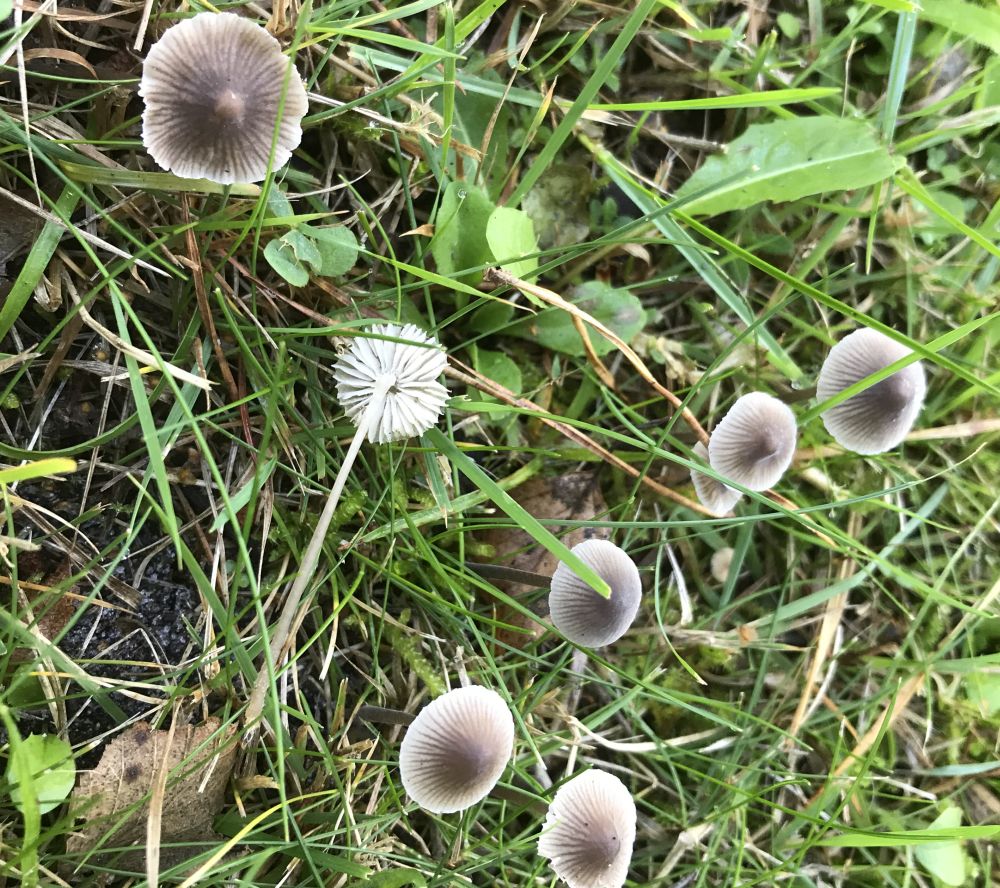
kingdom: Fungi
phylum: Basidiomycota
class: Agaricomycetes
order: Agaricales
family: Mycenaceae
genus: Mycena
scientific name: Mycena leptocephala
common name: klor-huesvamp
